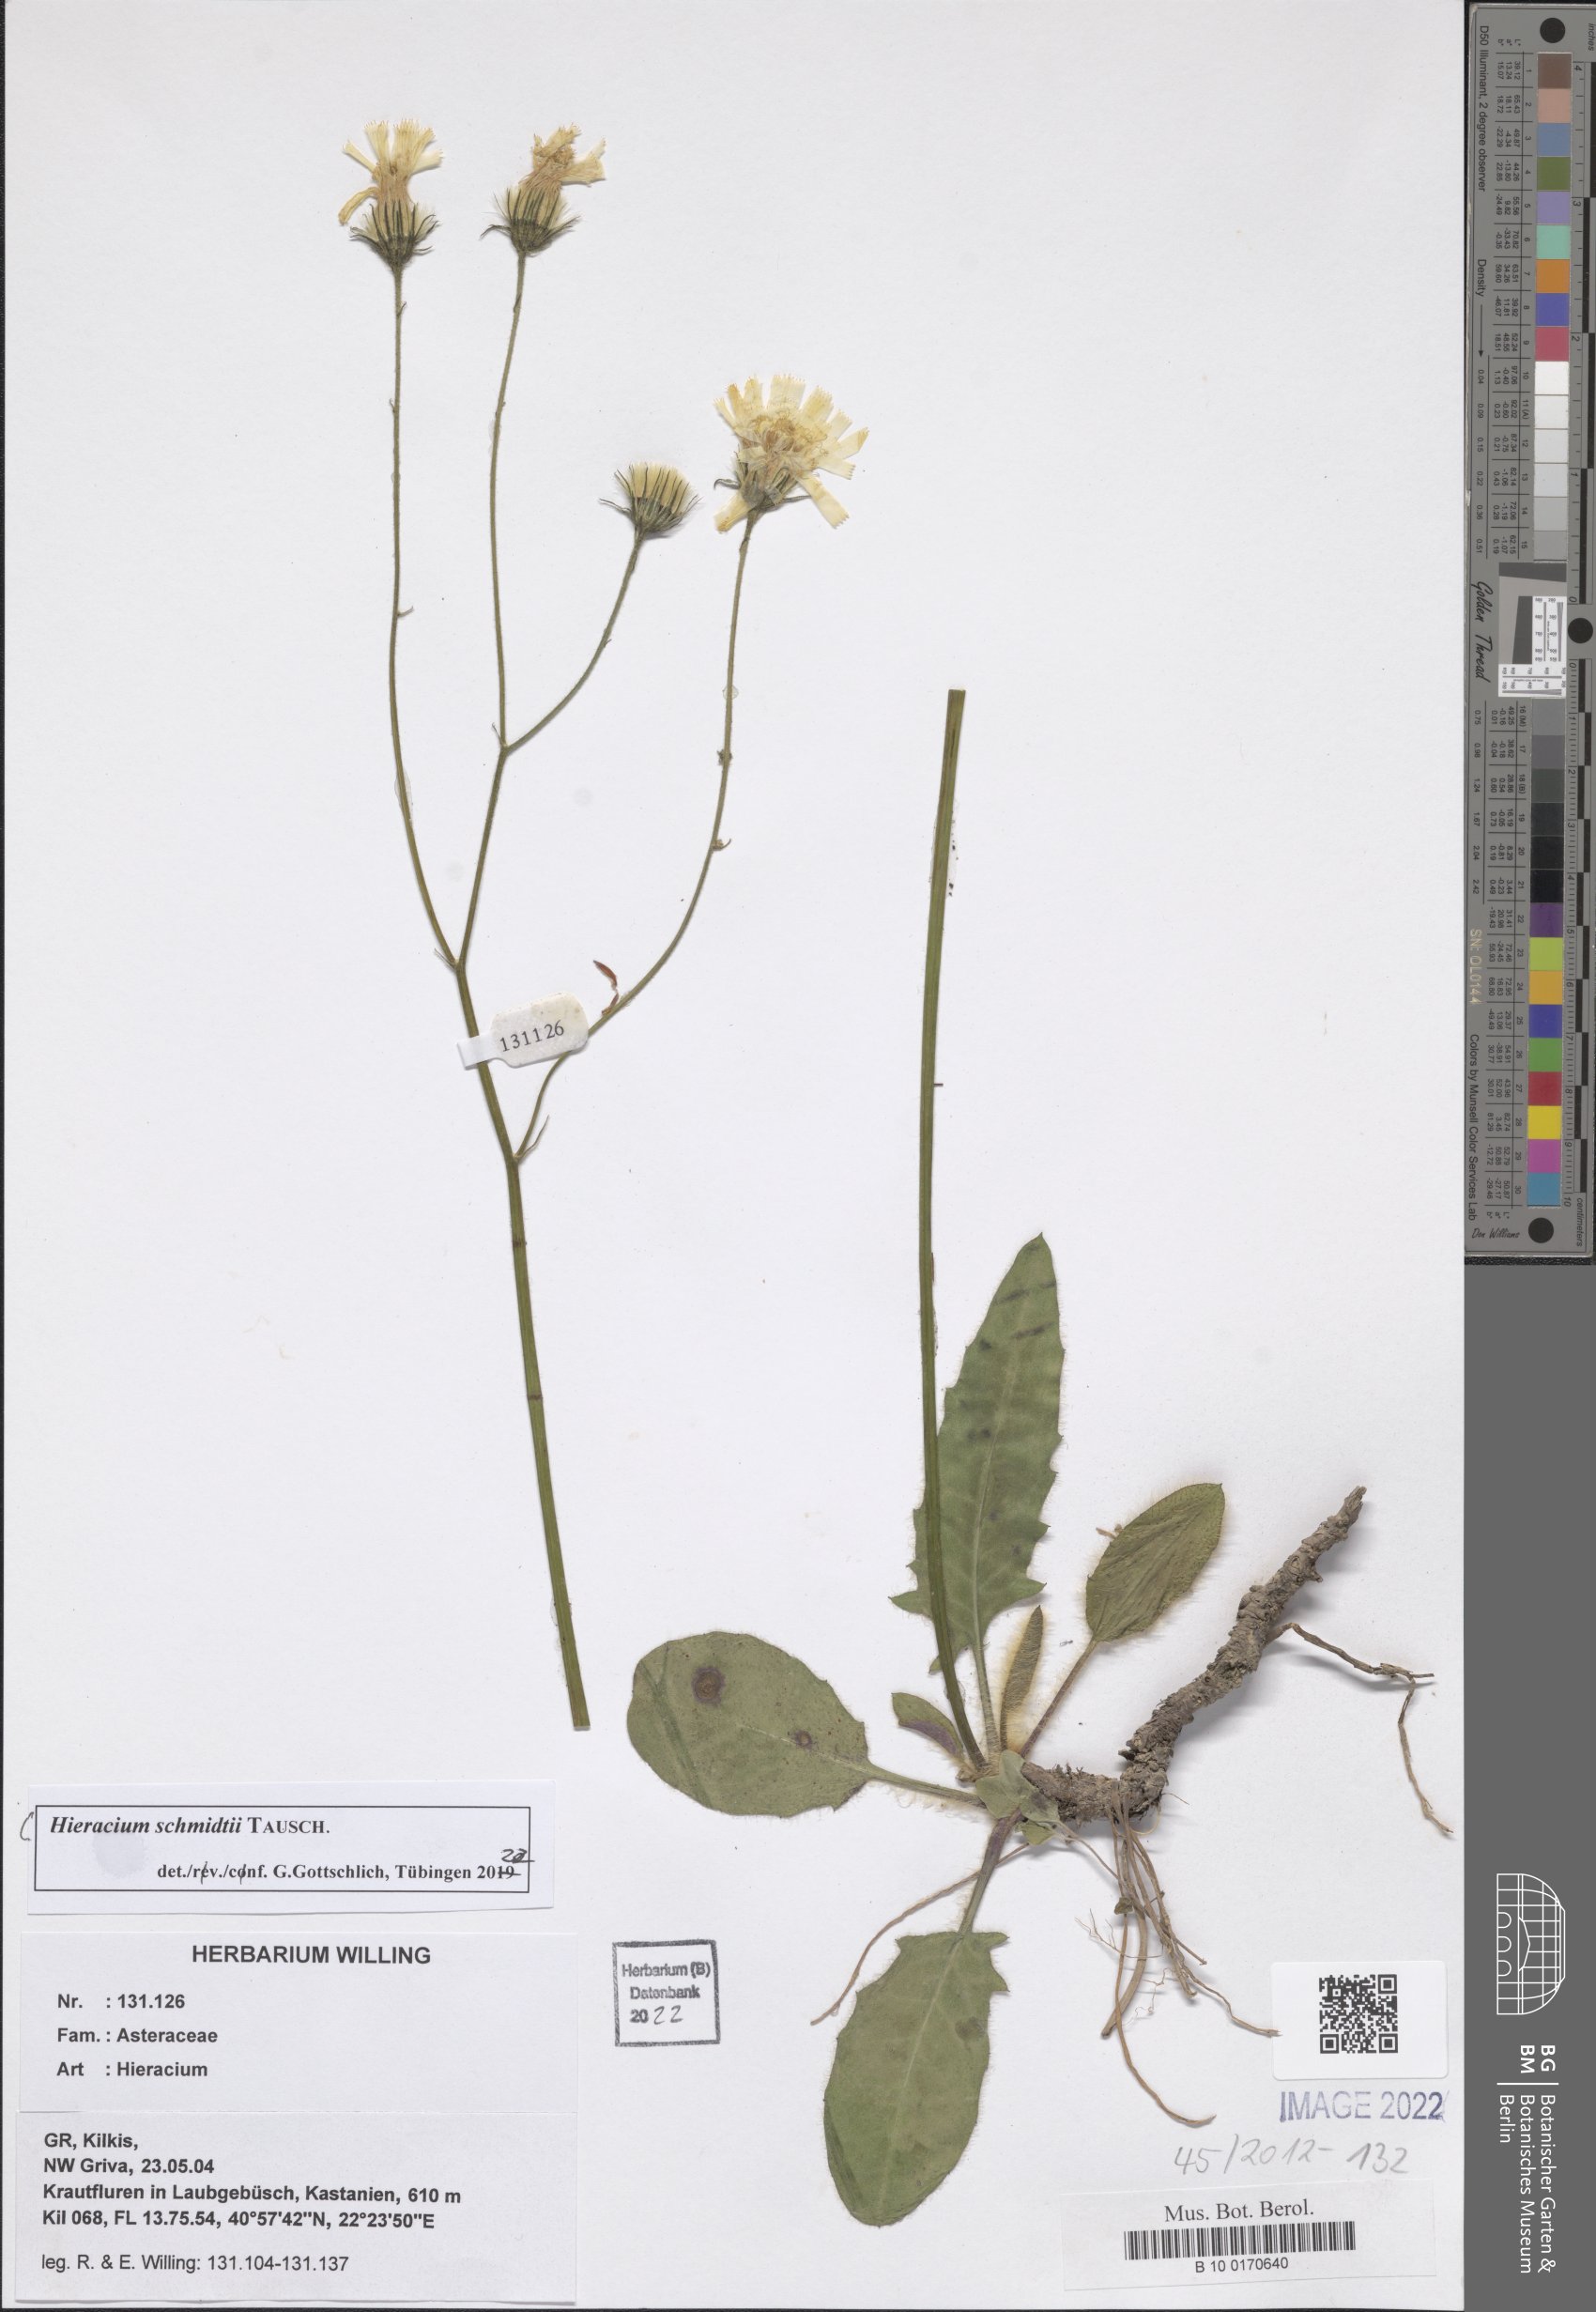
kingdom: Plantae
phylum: Tracheophyta
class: Magnoliopsida
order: Asterales
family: Asteraceae
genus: Hieracium
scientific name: Hieracium schmidtii
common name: Schmidt's hawkweed
